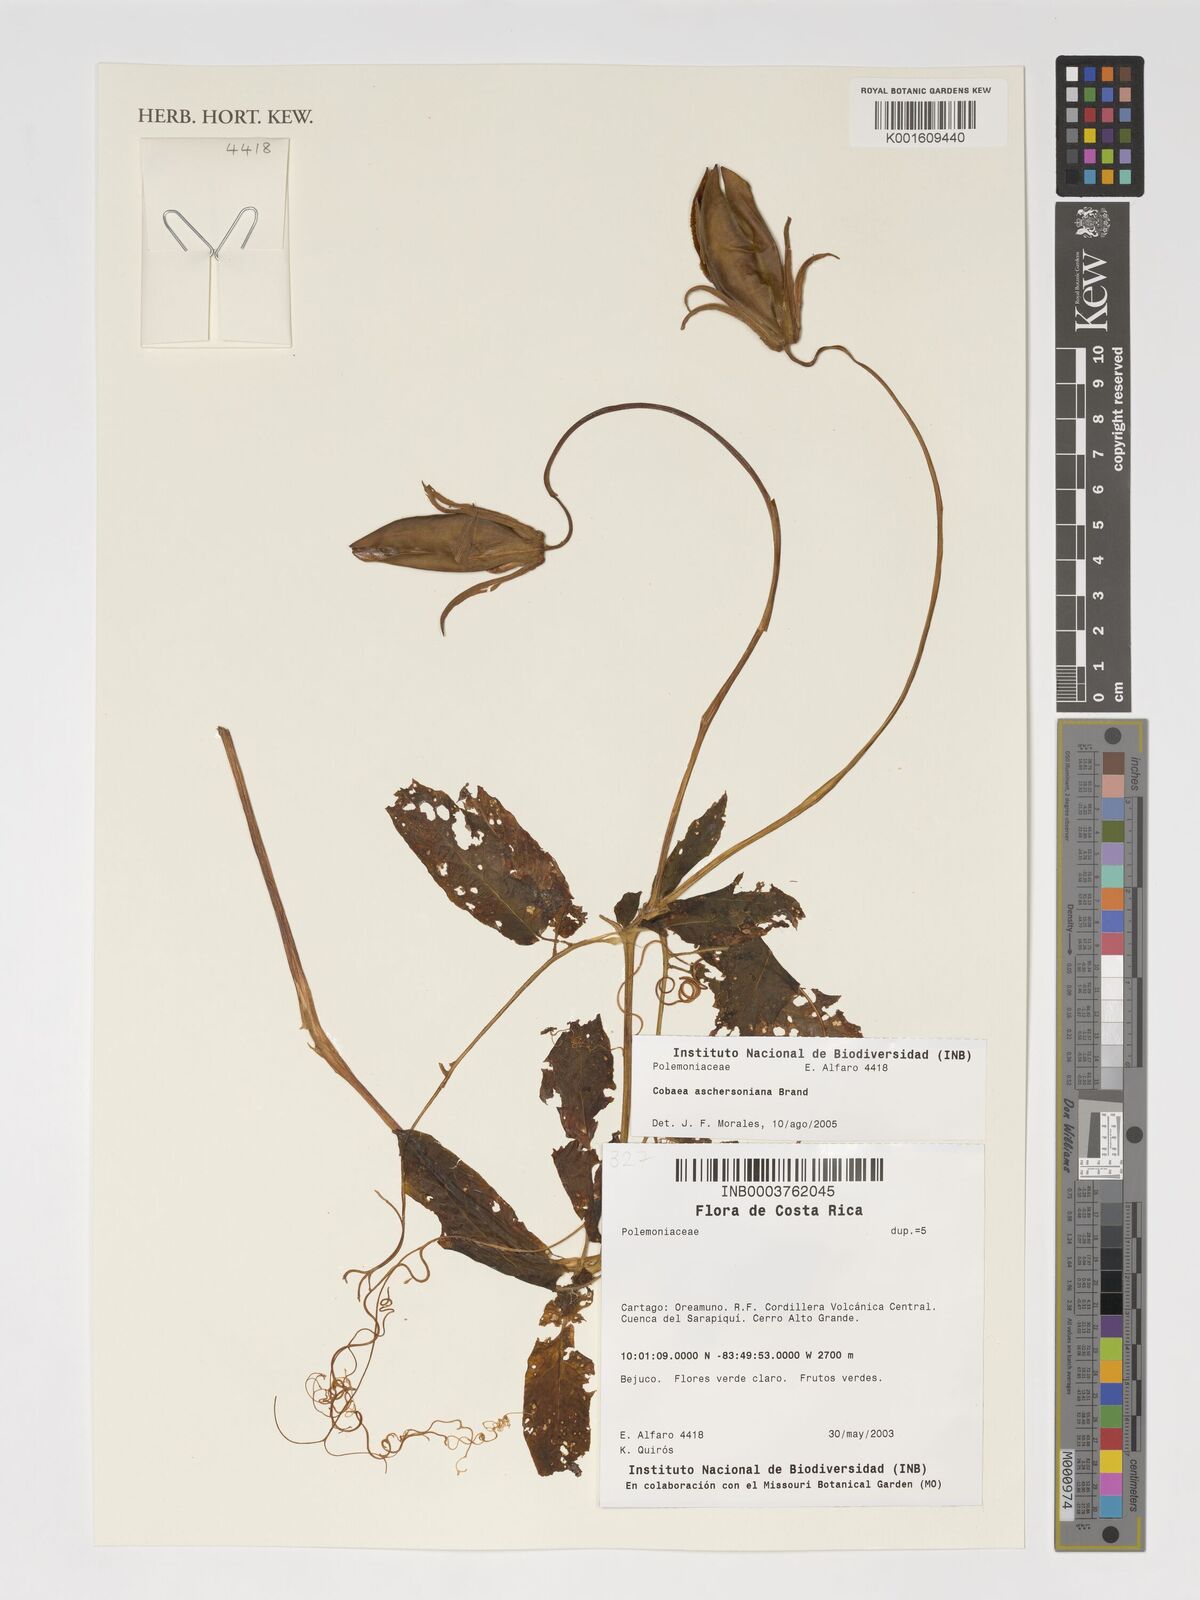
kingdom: Plantae
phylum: Tracheophyta
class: Magnoliopsida
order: Ericales
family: Polemoniaceae
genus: Cobaea
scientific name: Cobaea aschersoniana
